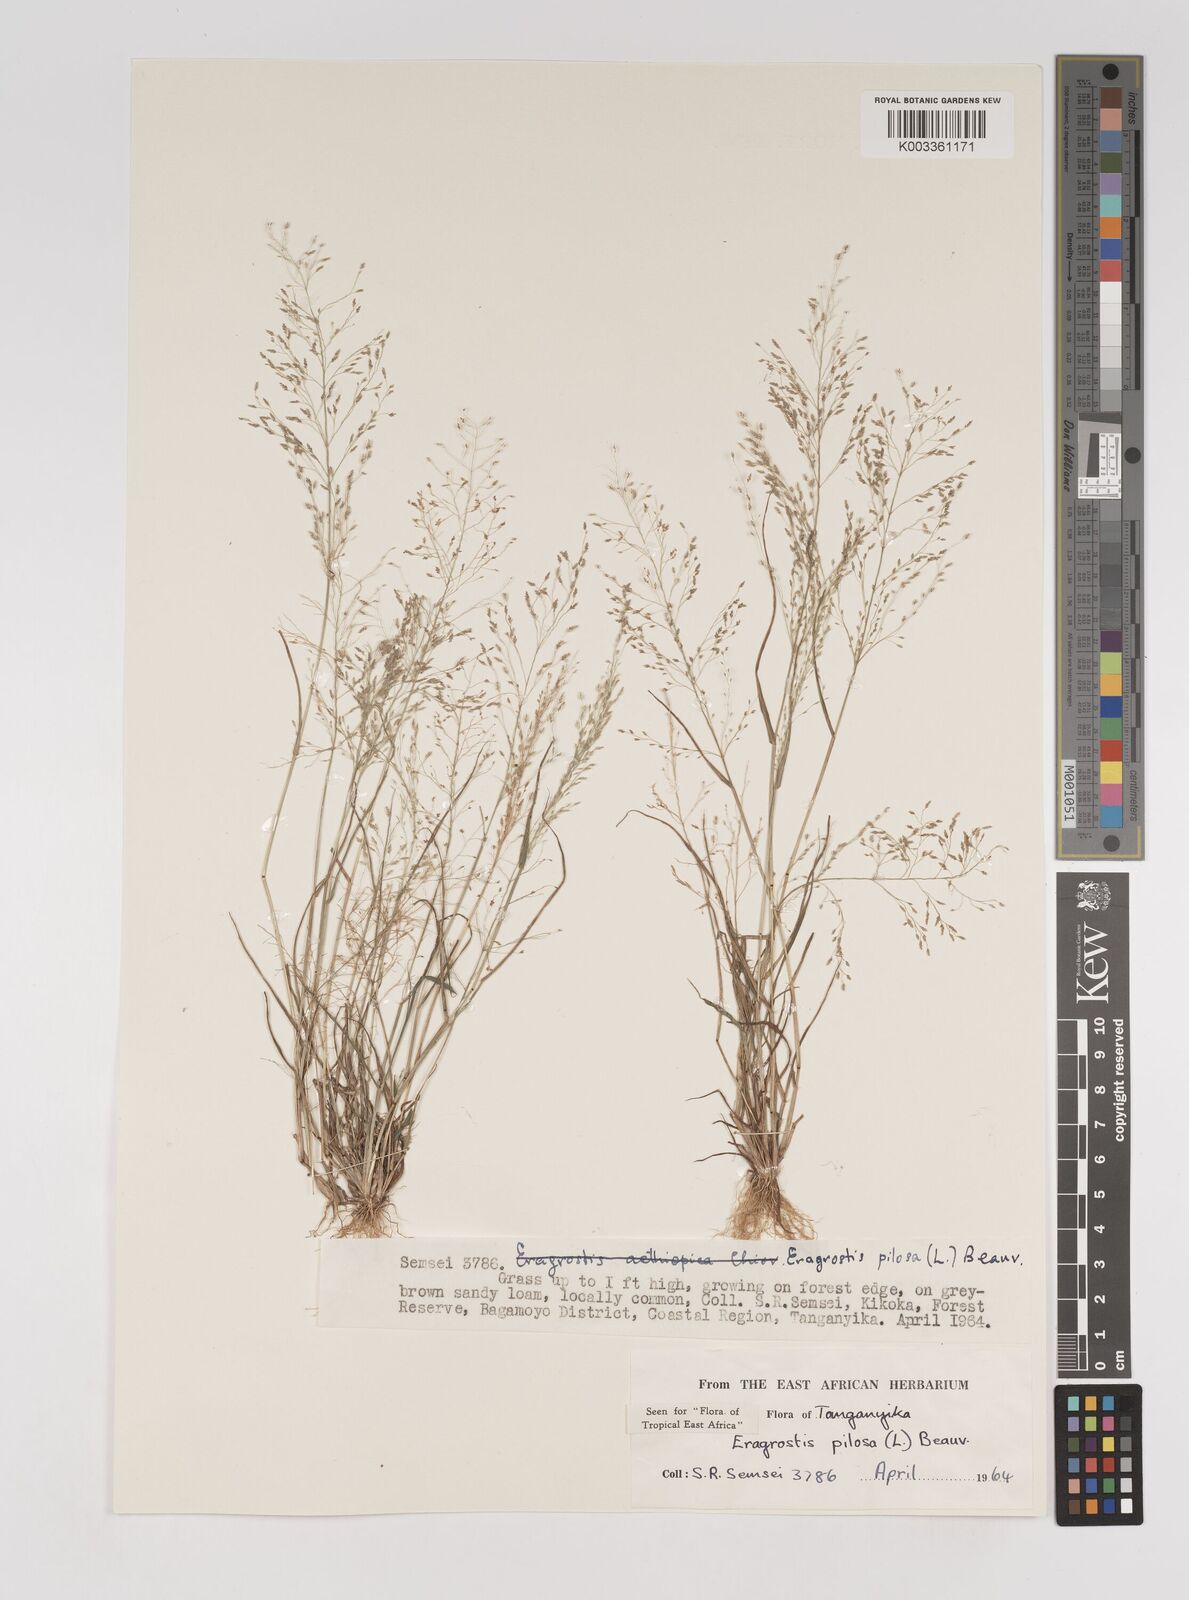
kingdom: Plantae
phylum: Tracheophyta
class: Liliopsida
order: Poales
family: Poaceae
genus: Eragrostis
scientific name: Eragrostis pilosa
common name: Indian lovegrass
